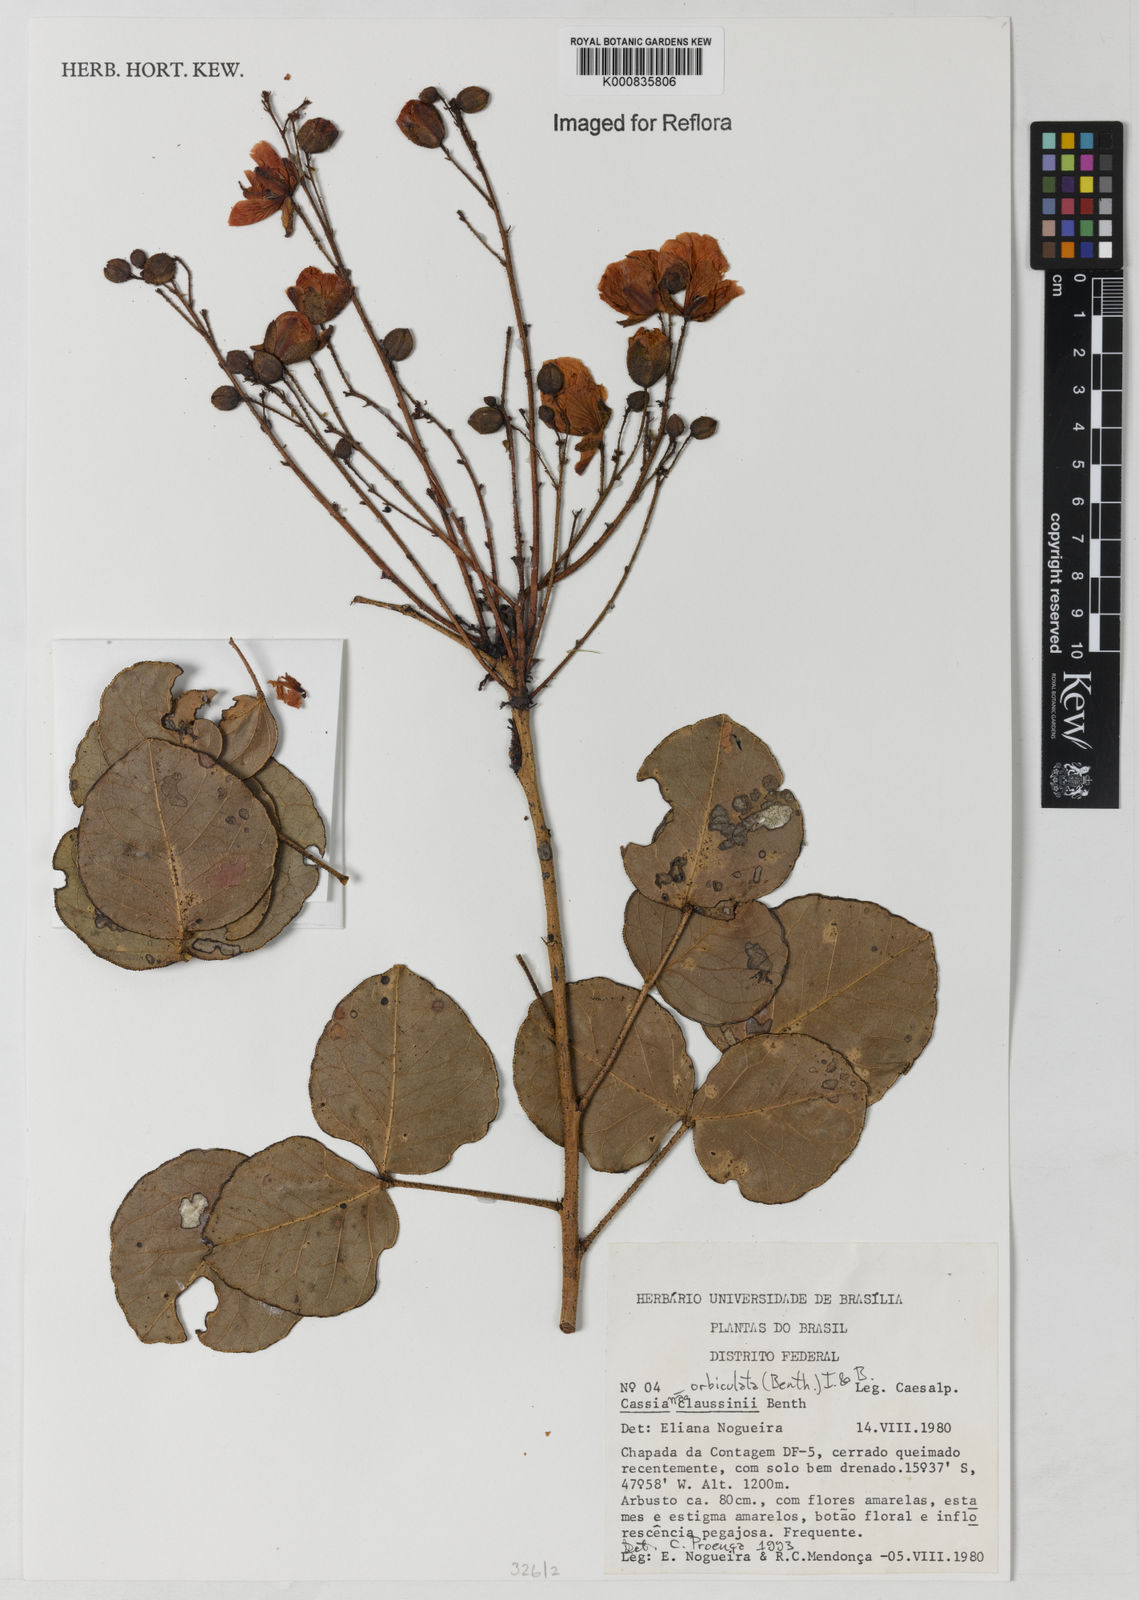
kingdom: Plantae
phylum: Tracheophyta
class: Magnoliopsida
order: Fabales
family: Fabaceae
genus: Chamaecrista
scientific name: Chamaecrista orbiculata
